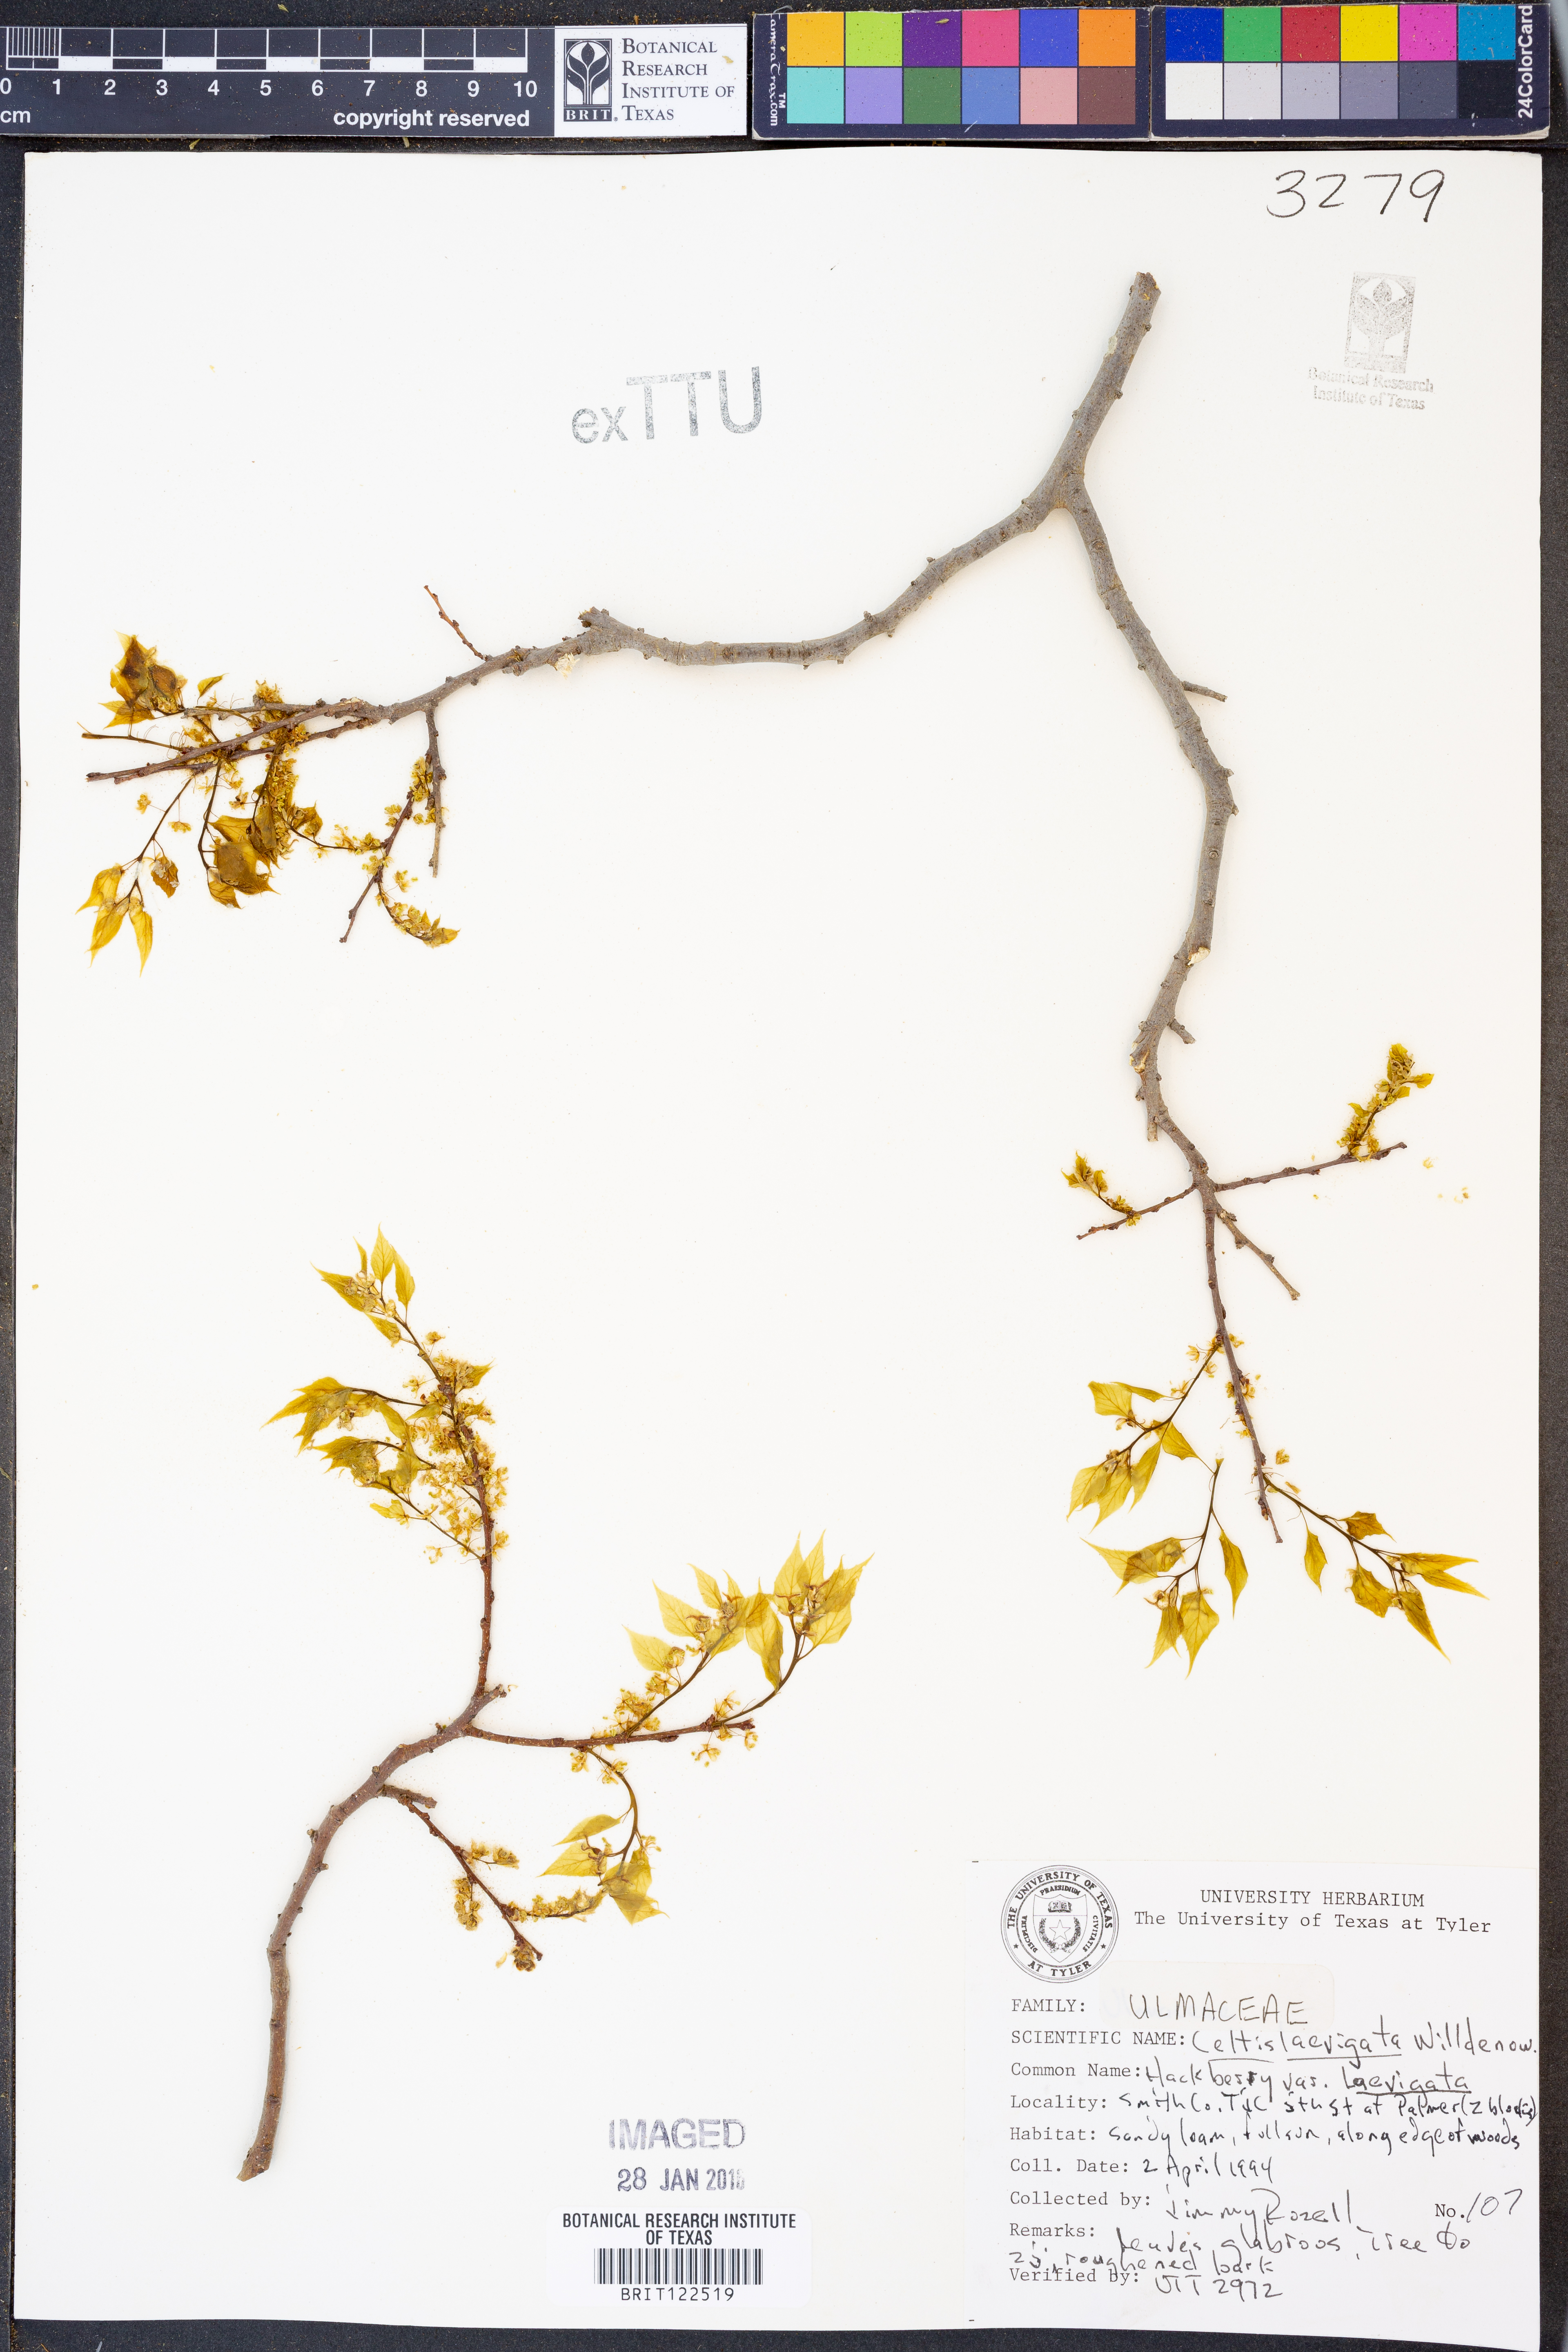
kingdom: Plantae
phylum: Tracheophyta
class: Magnoliopsida
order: Rosales
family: Cannabaceae
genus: Celtis
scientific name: Celtis laevigata
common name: Sugarberry
